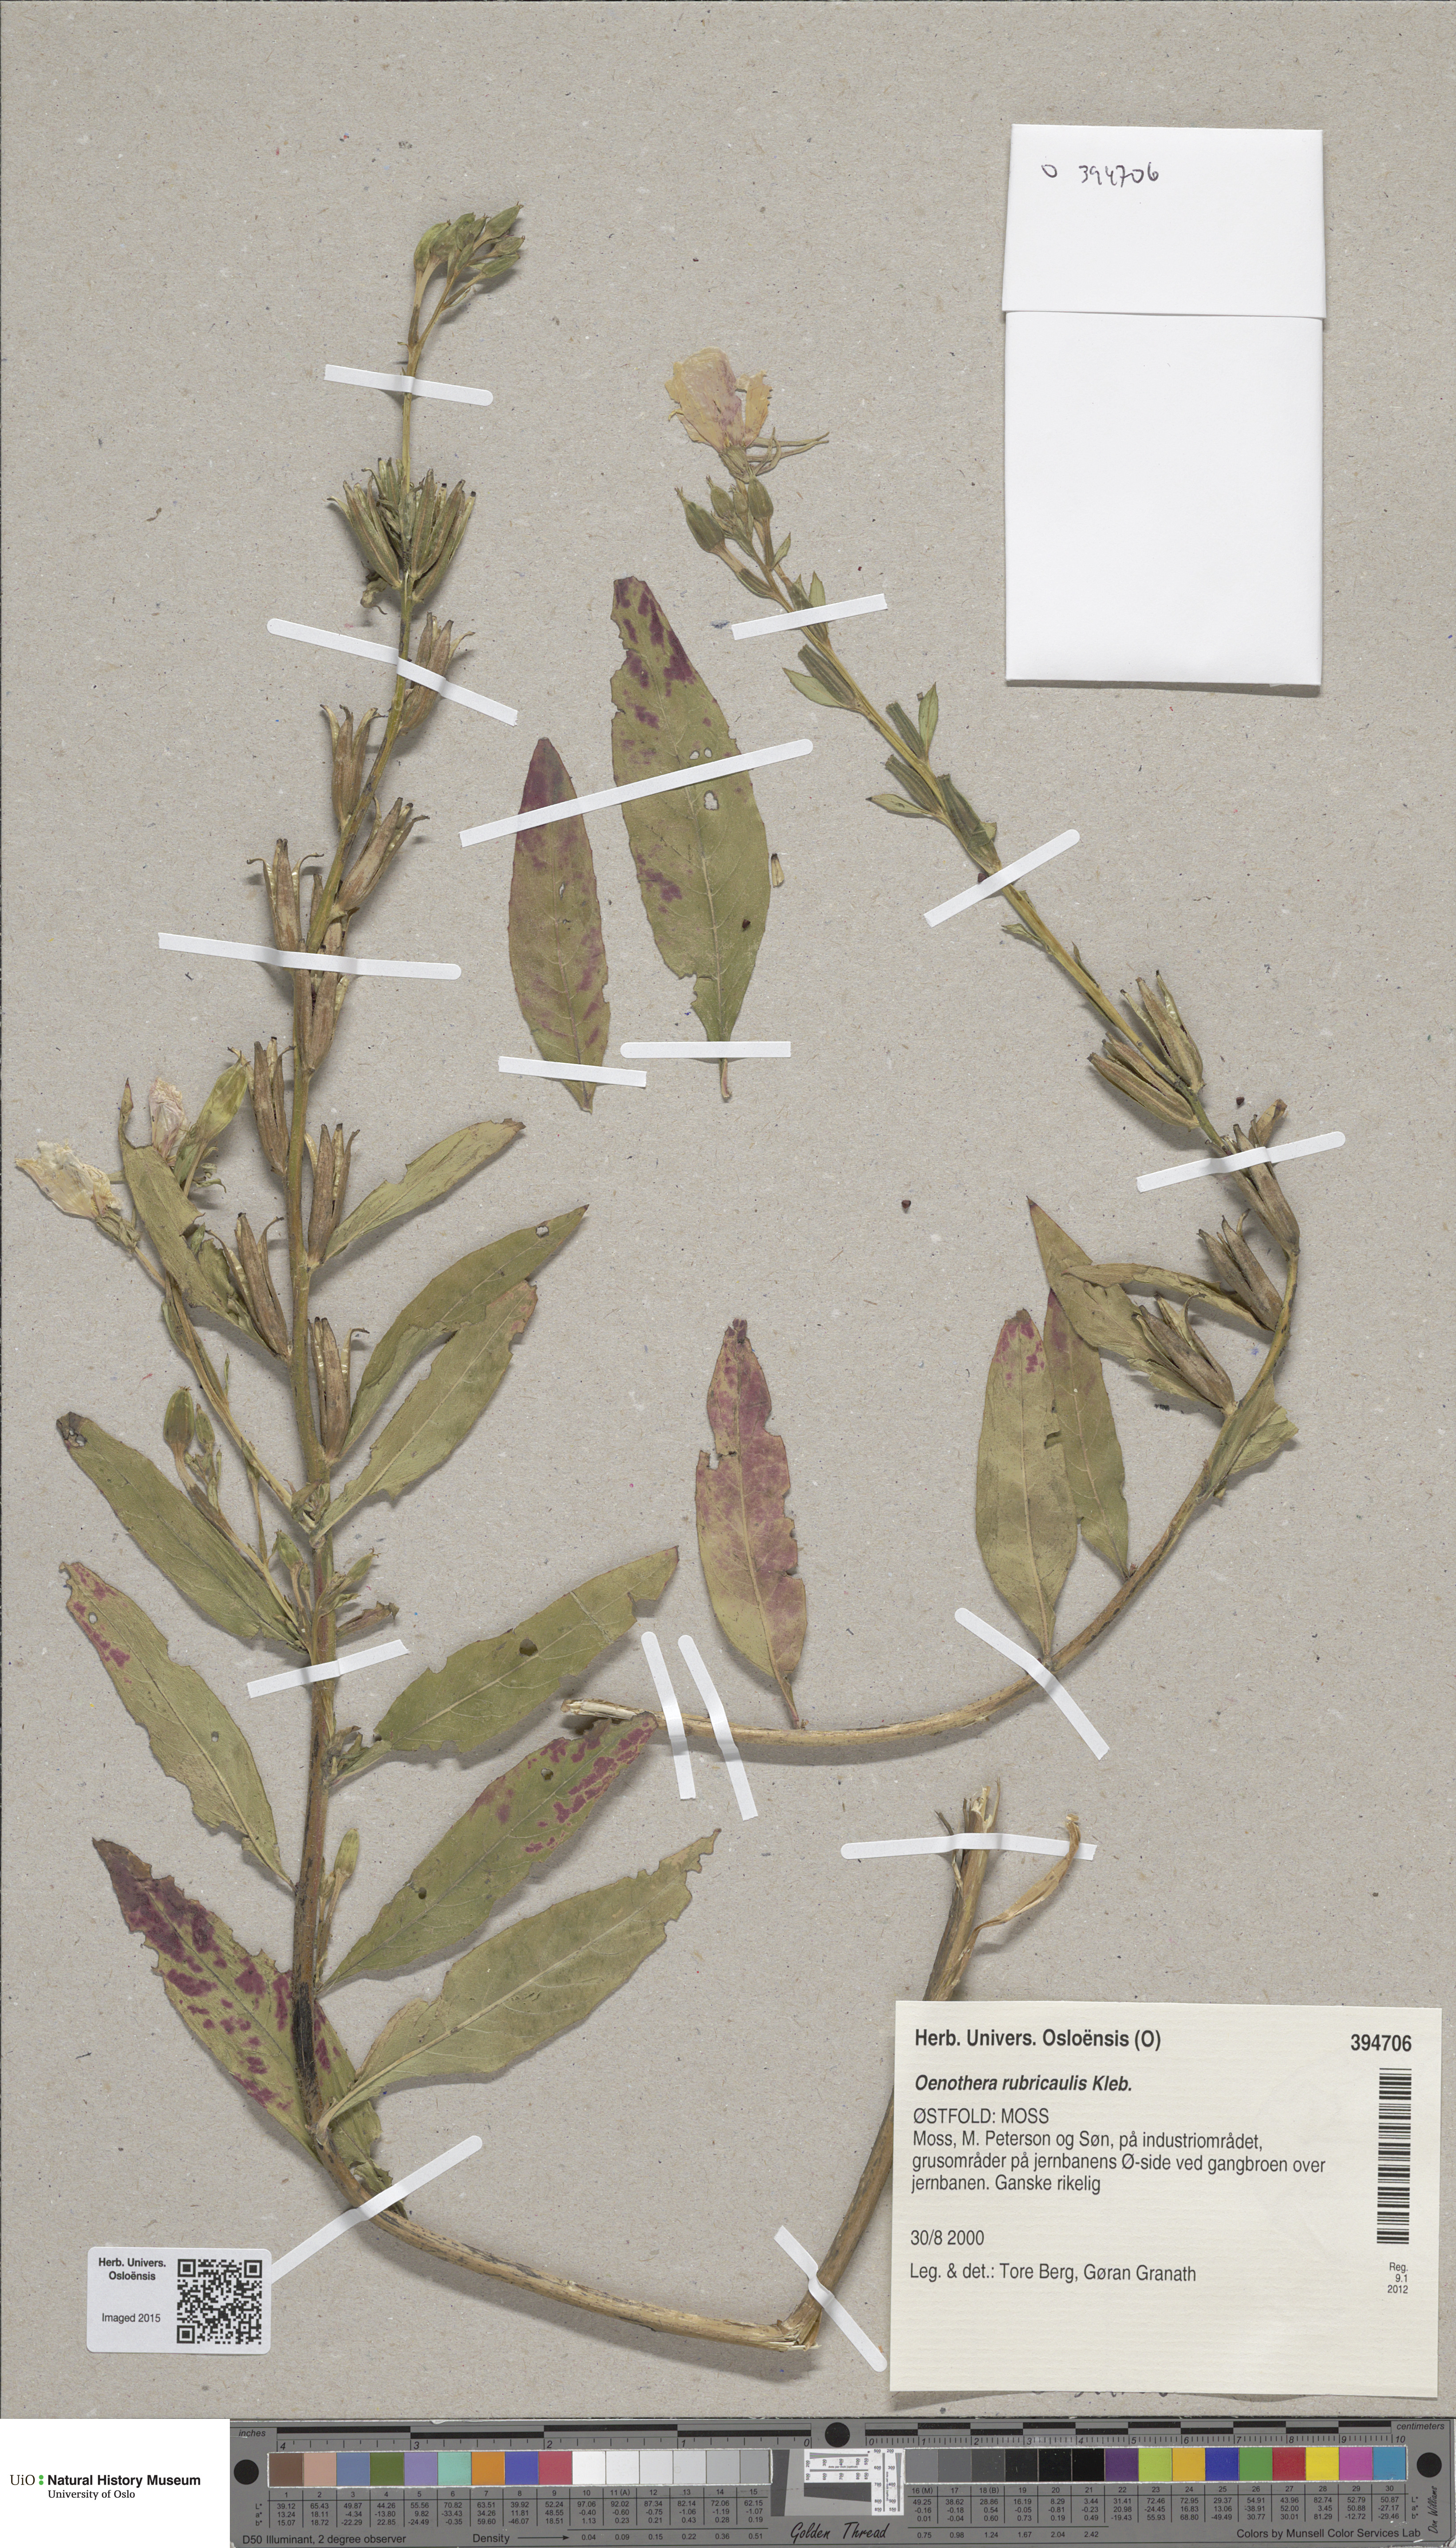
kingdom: Plantae
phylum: Tracheophyta
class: Magnoliopsida
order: Myrtales
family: Onagraceae
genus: Oenothera
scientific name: Oenothera biennis
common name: Common evening-primrose
